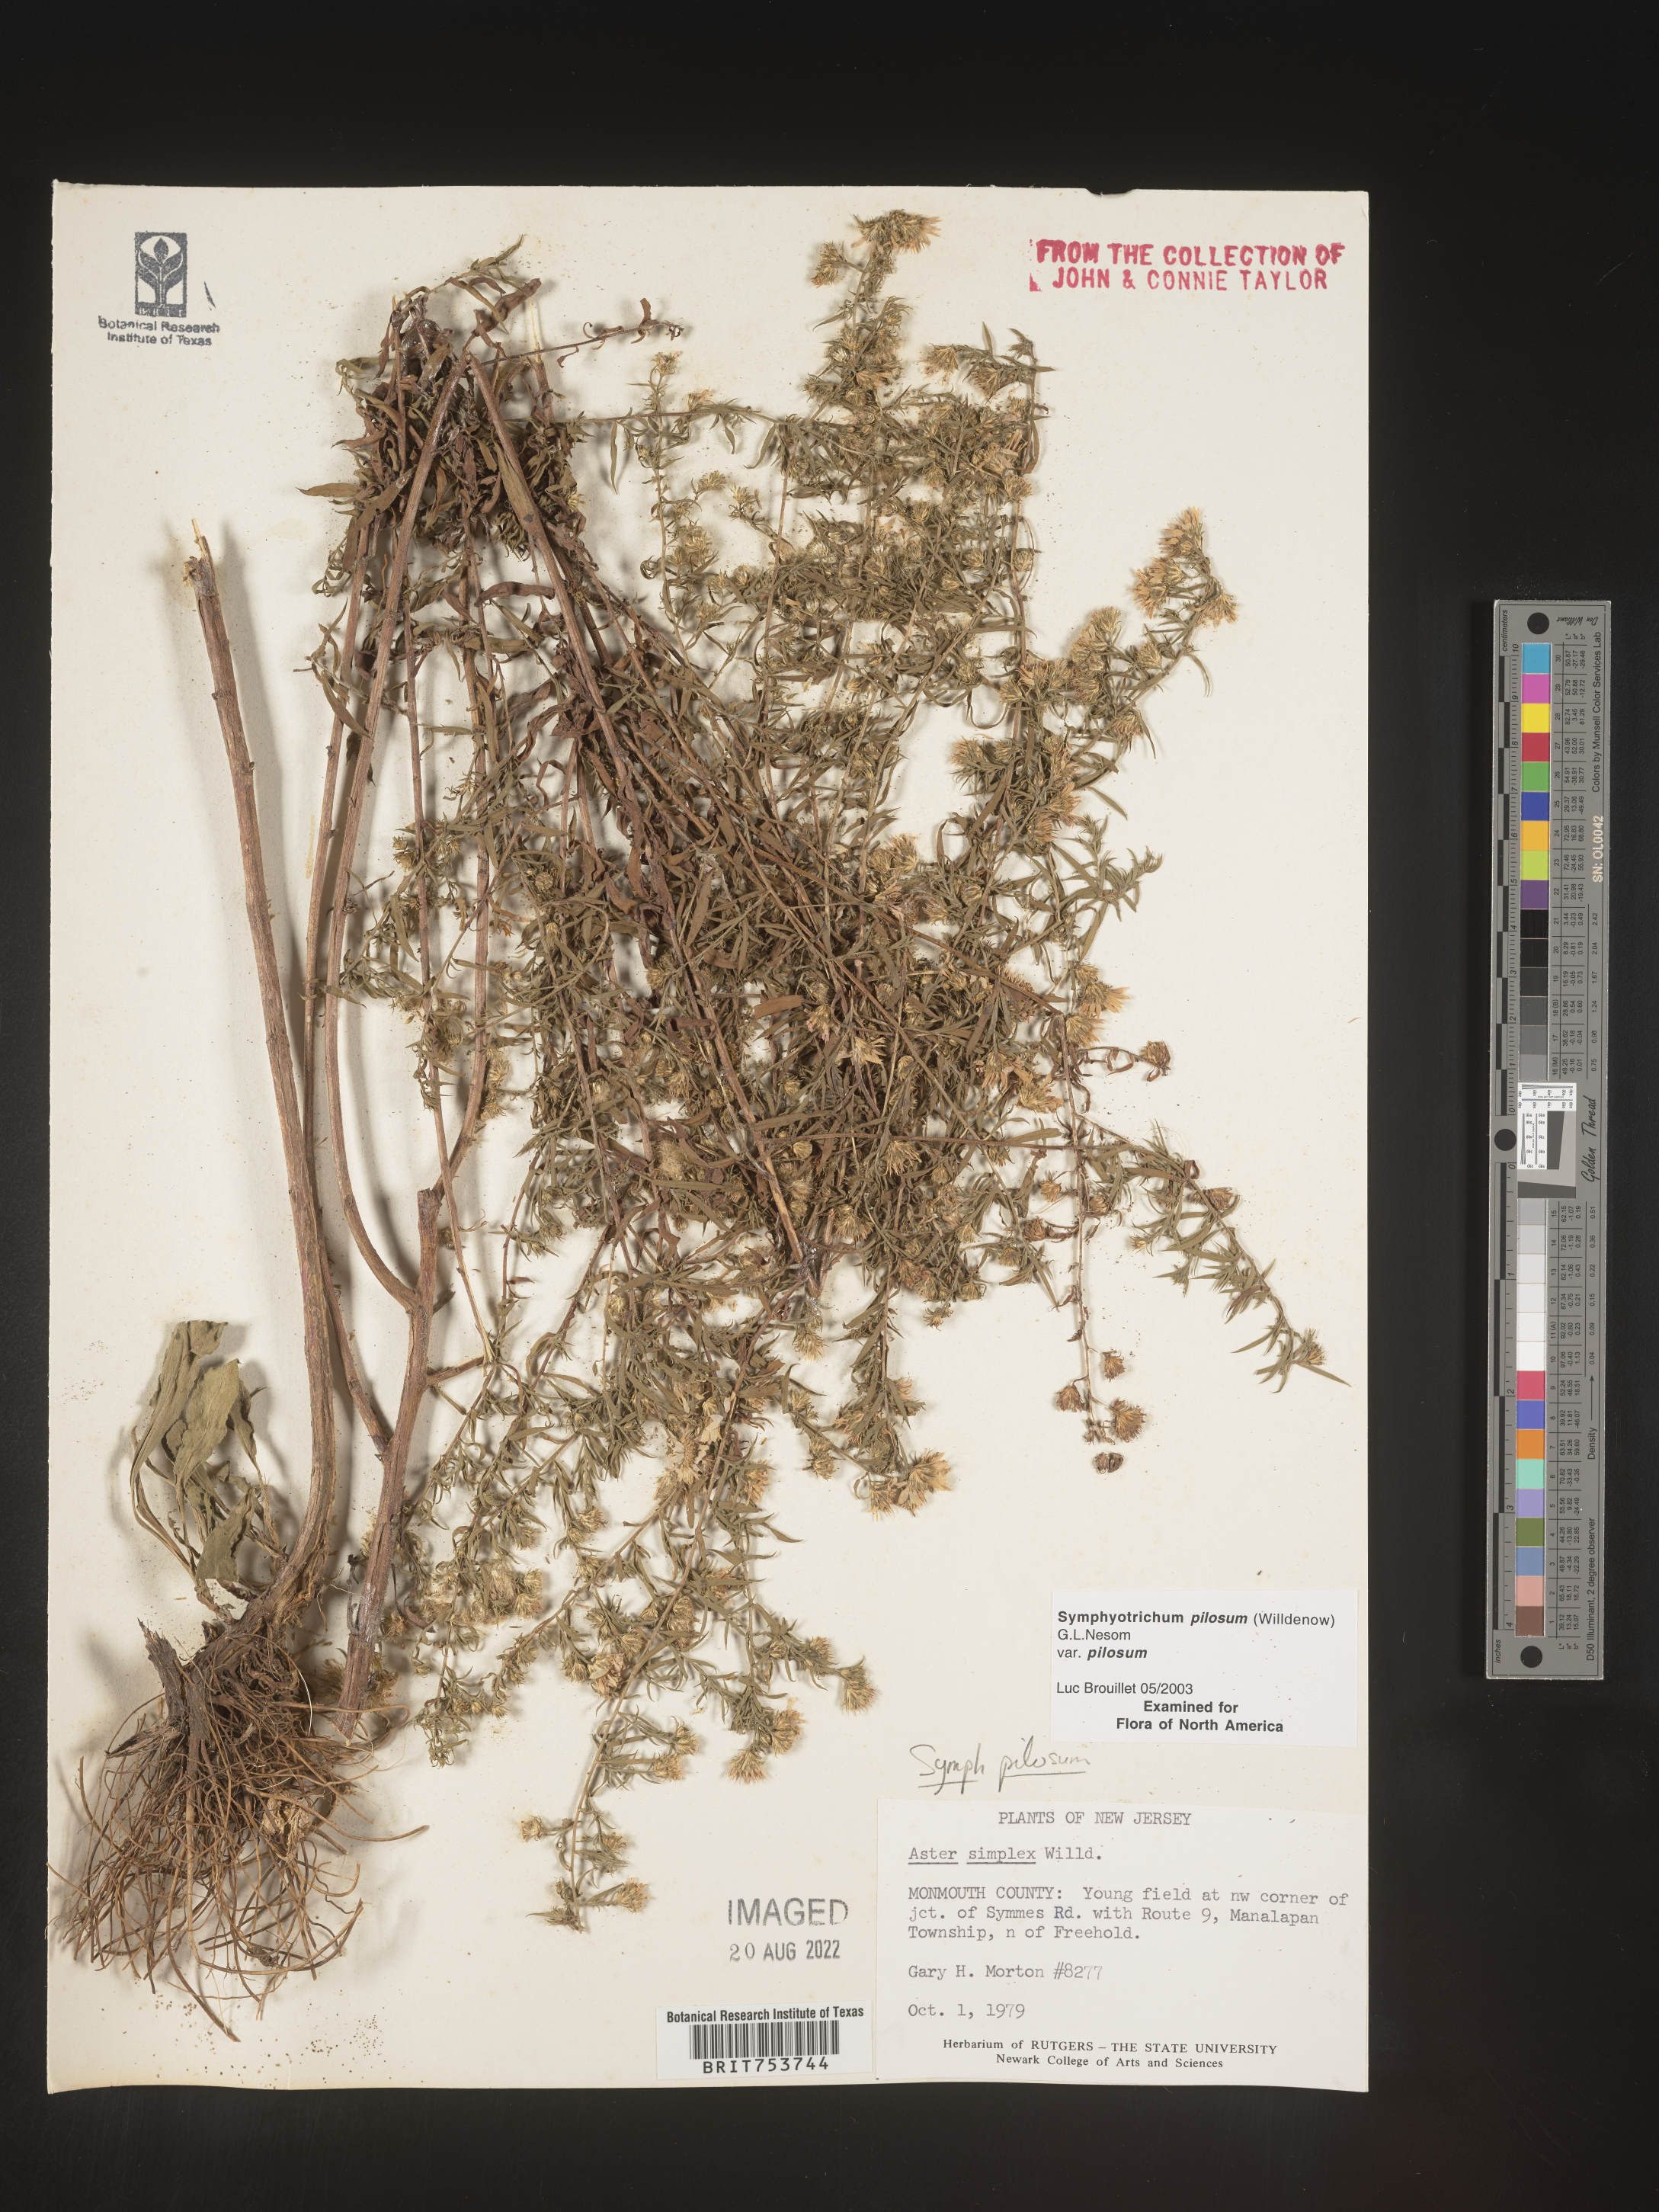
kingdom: Plantae
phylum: Tracheophyta
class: Magnoliopsida
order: Asterales
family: Asteraceae
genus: Symphyotrichum
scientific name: Symphyotrichum pilosum
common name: Awl aster
